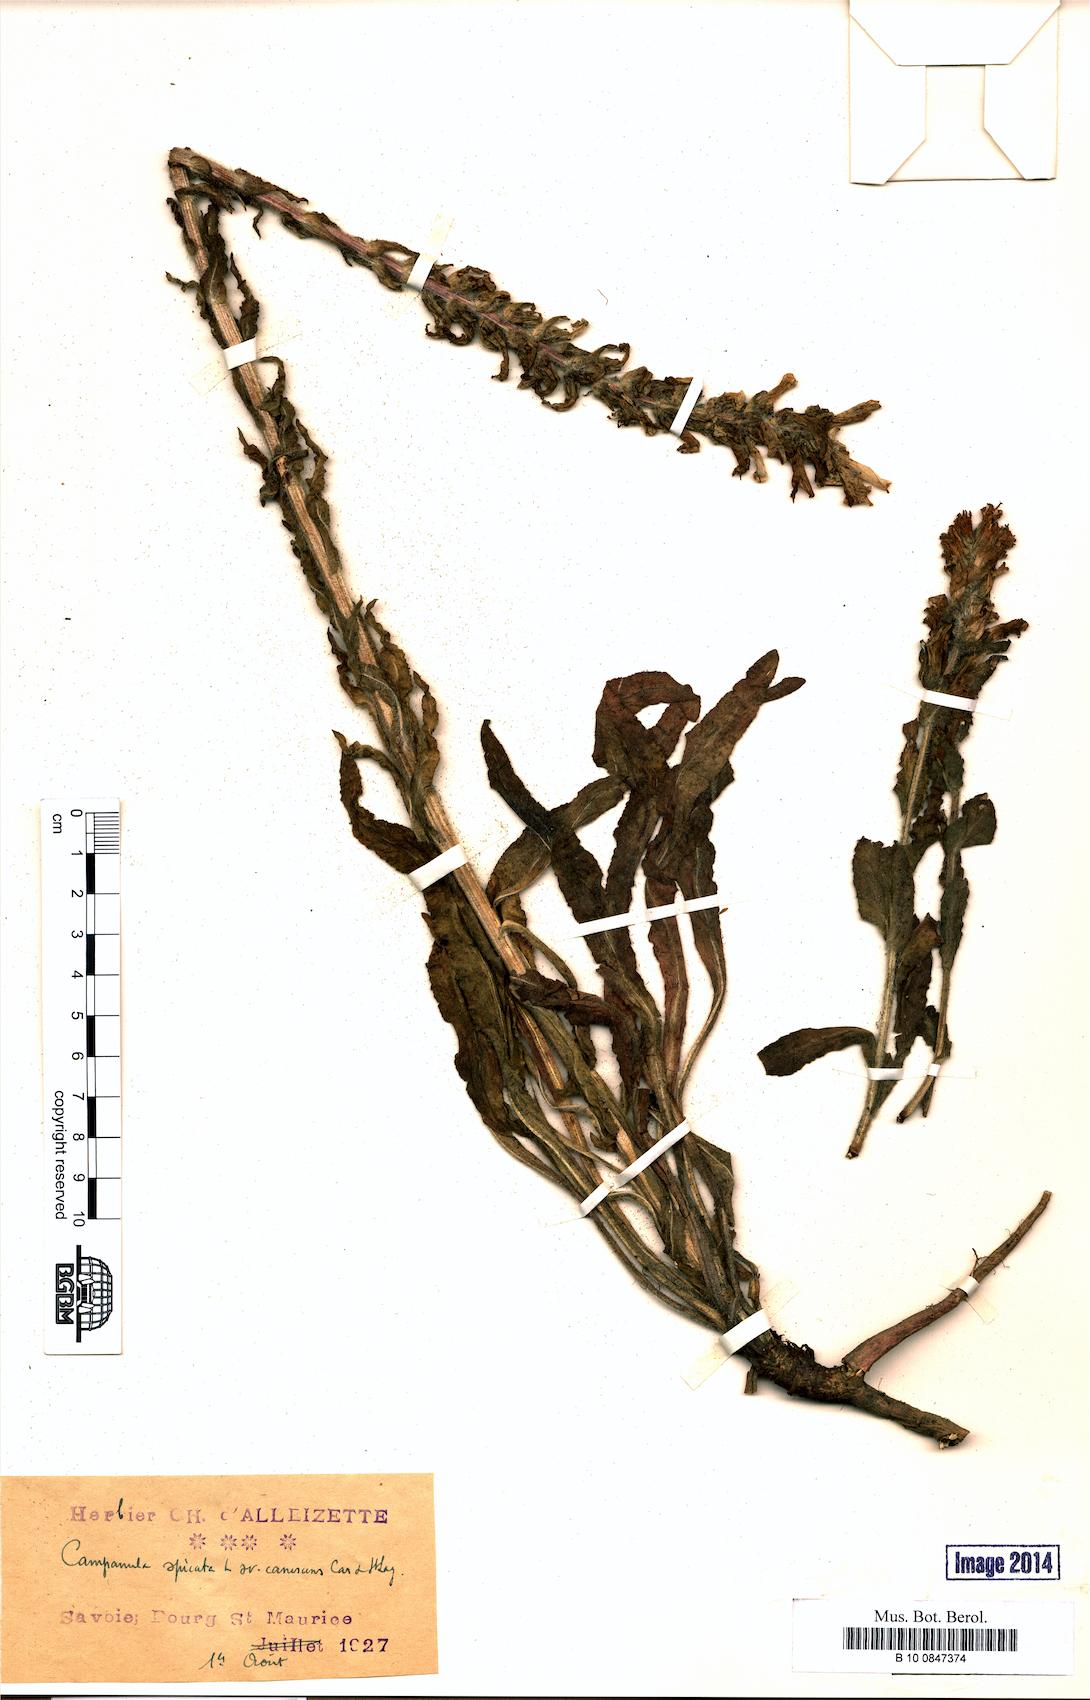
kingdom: Plantae
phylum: Tracheophyta
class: Magnoliopsida
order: Asterales
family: Campanulaceae
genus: Campanula
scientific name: Campanula spicata
